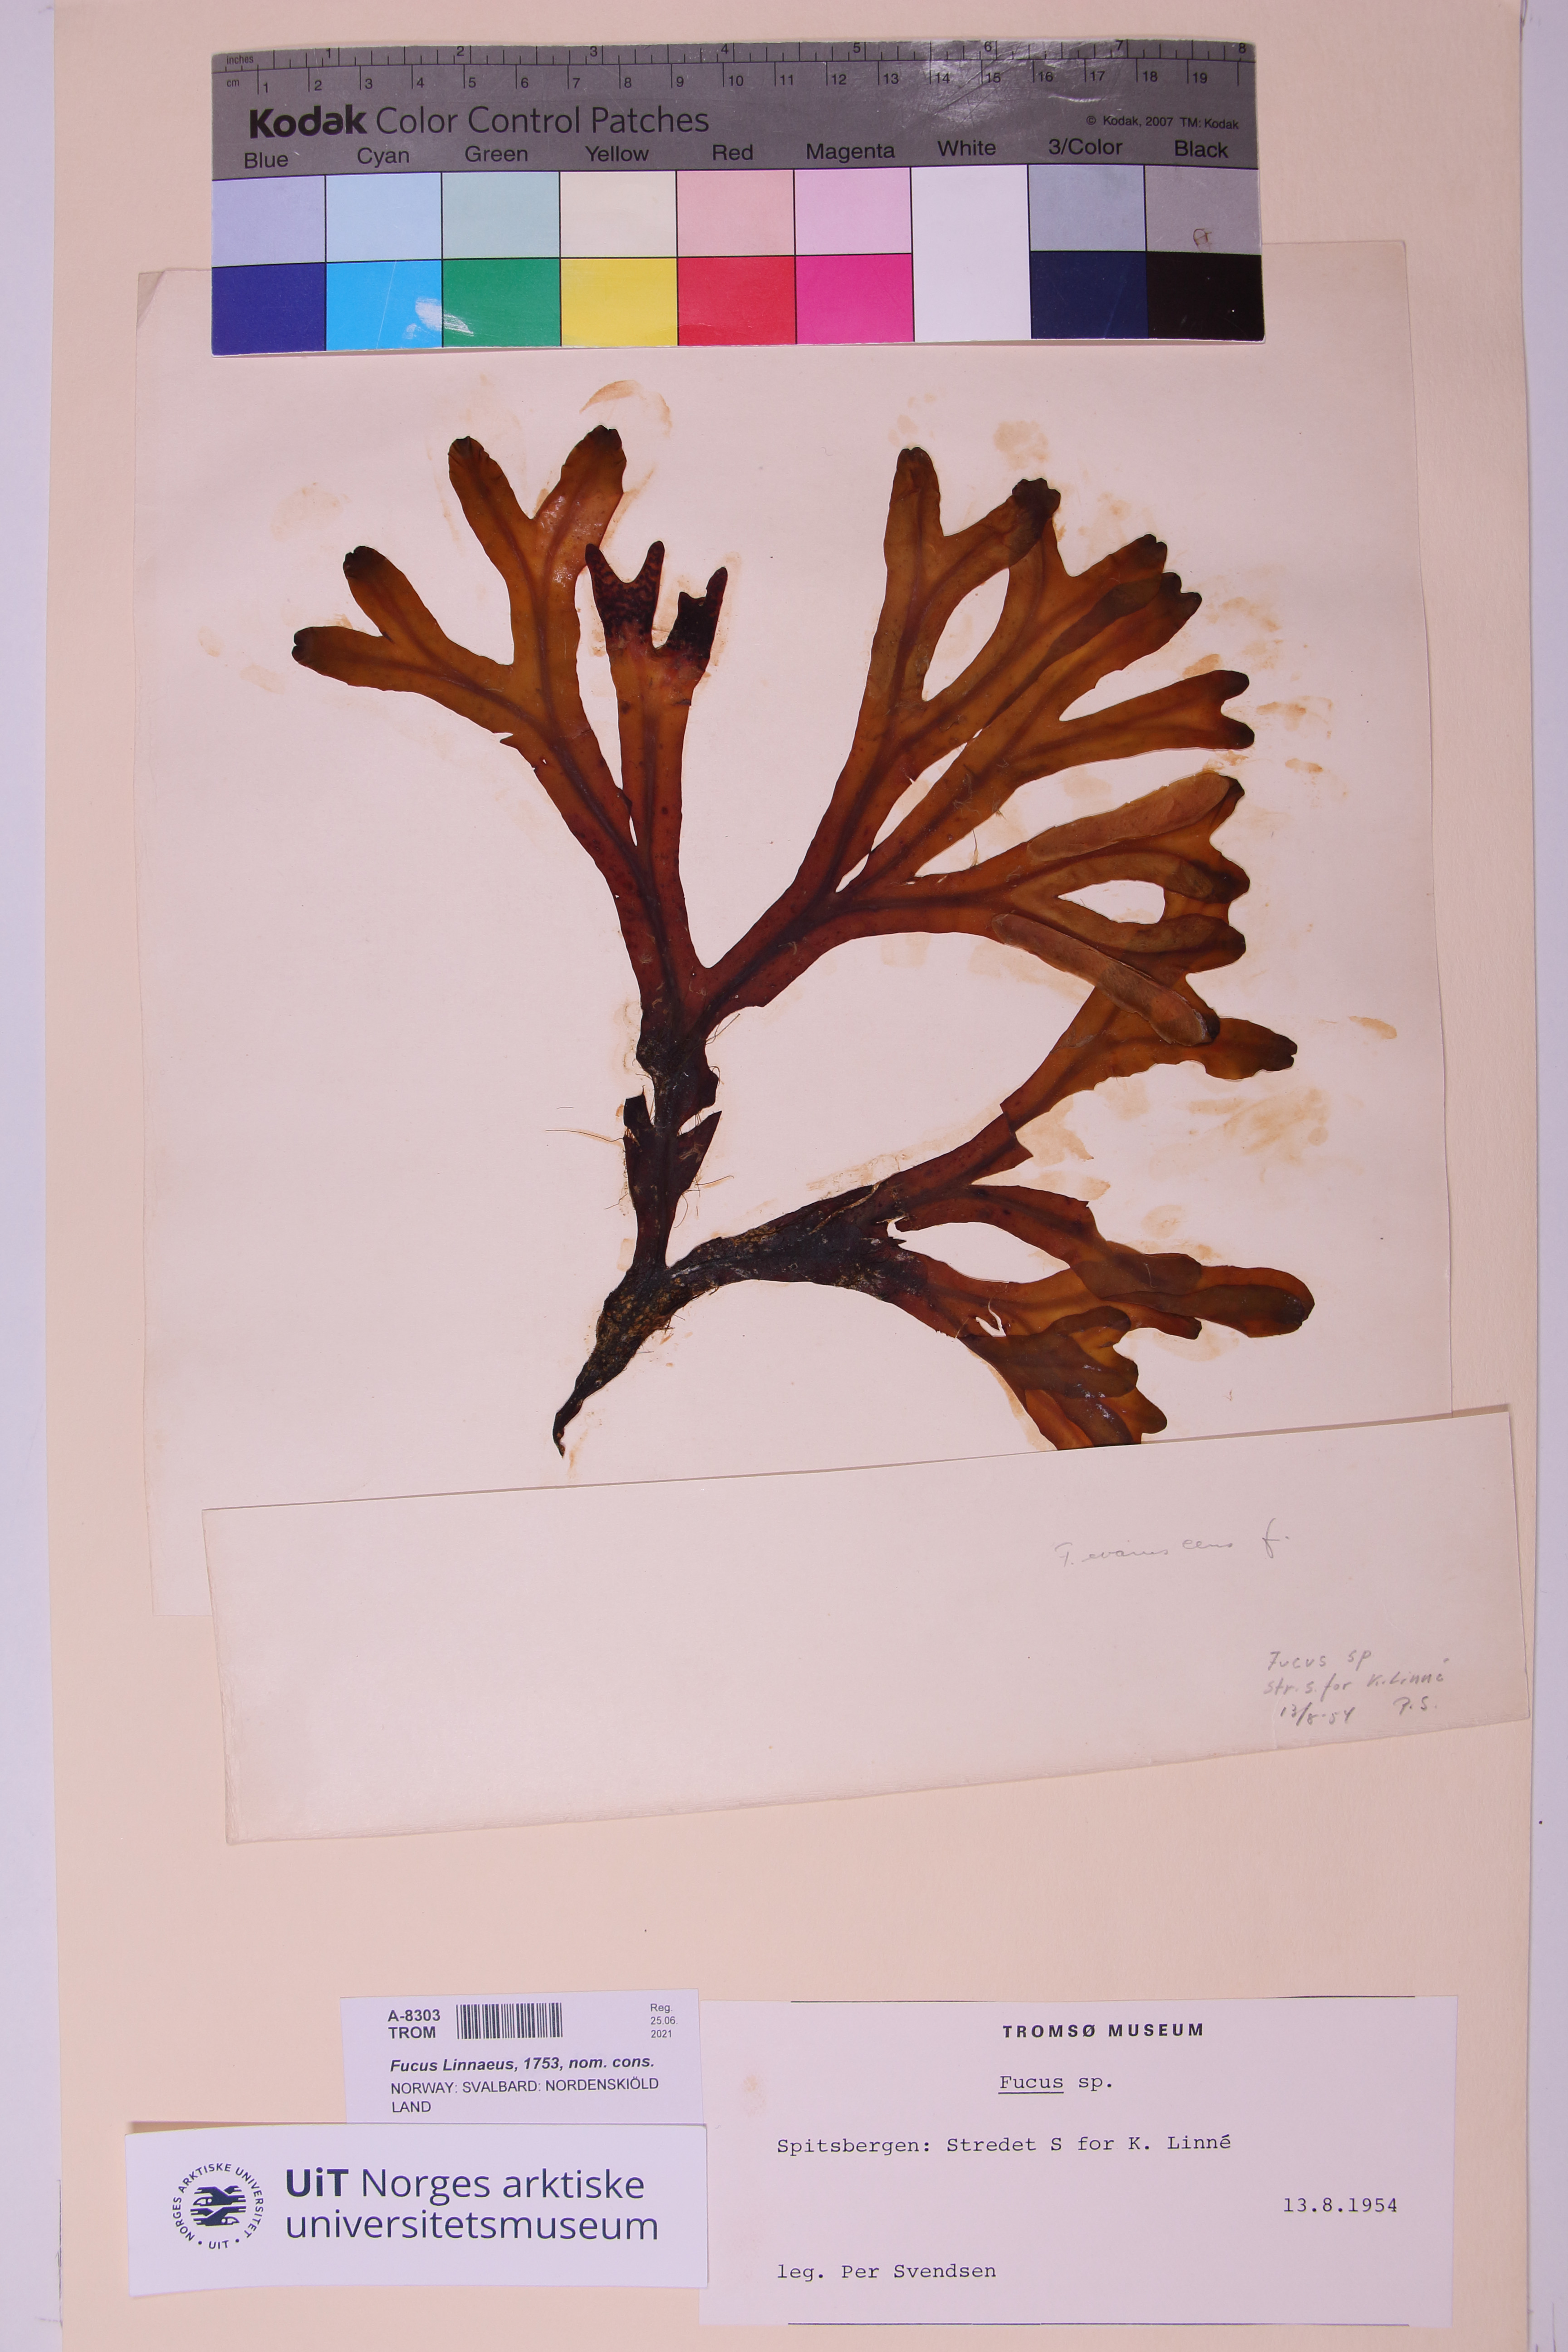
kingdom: Chromista
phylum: Ochrophyta
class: Phaeophyceae
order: Fucales
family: Fucaceae
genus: Fucus
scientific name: Fucus
